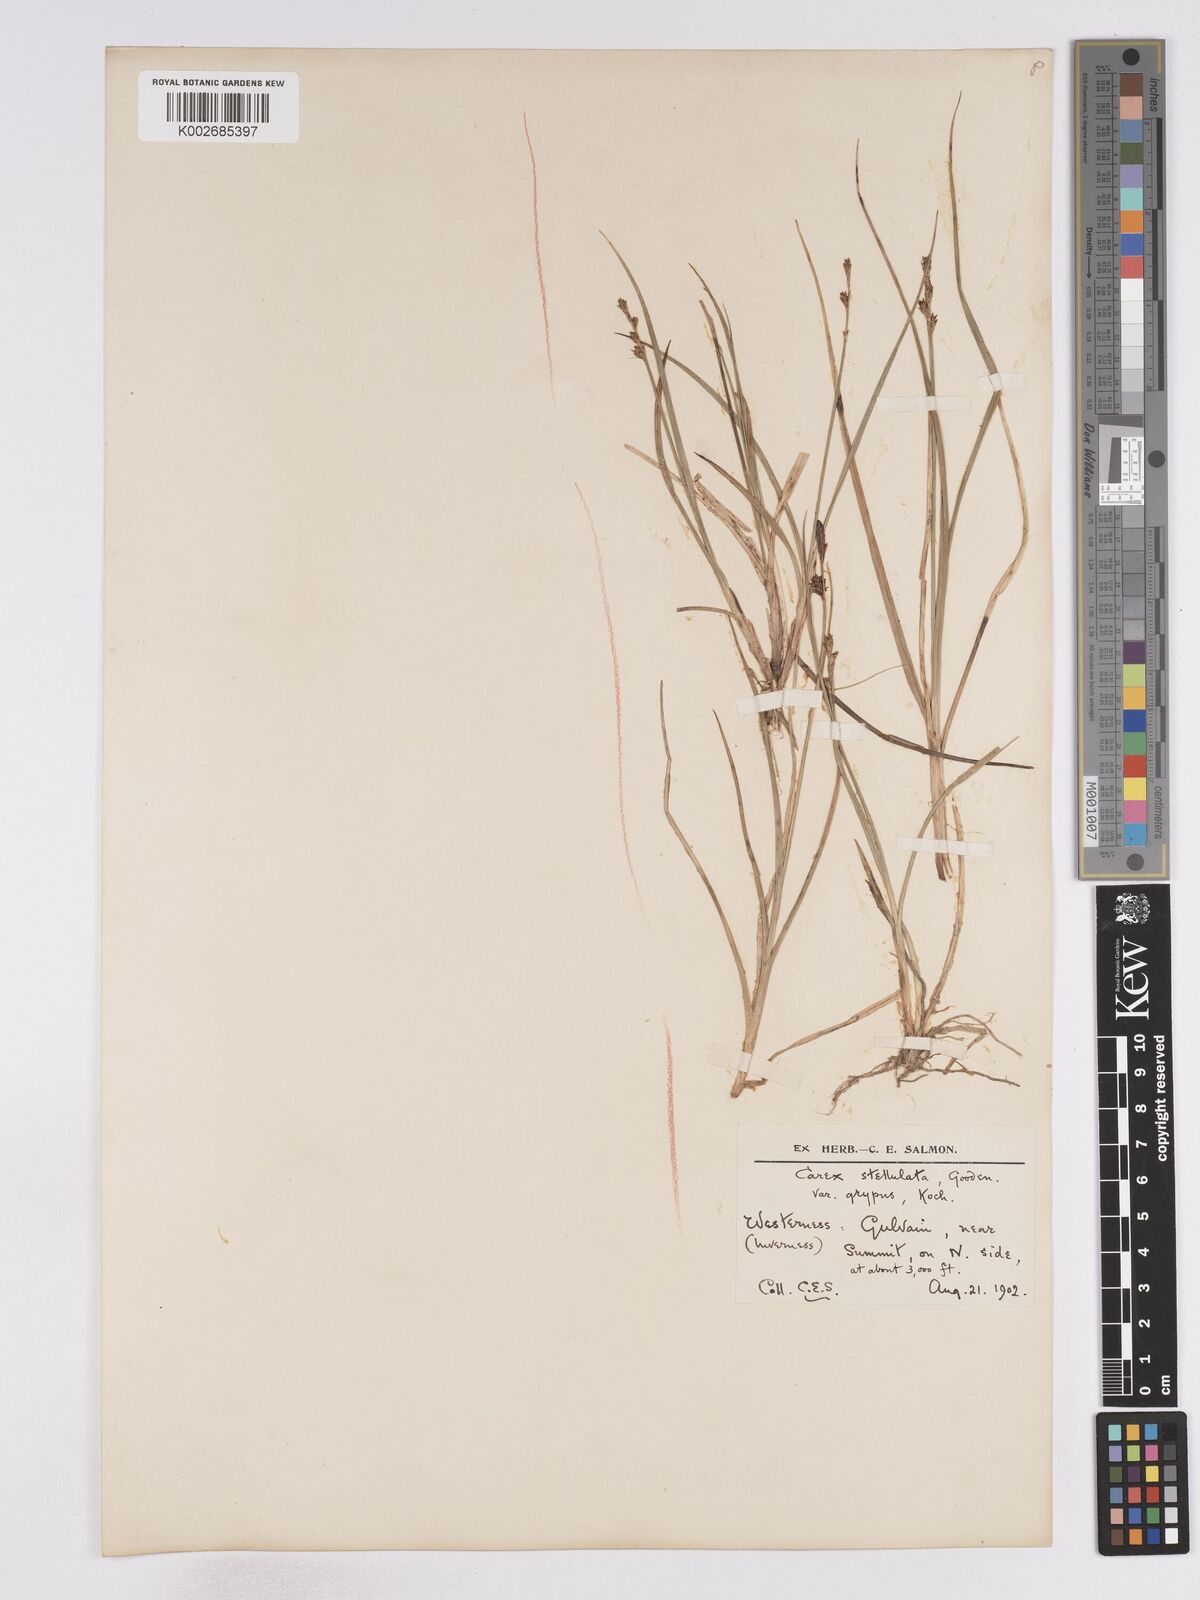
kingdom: Plantae
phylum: Tracheophyta
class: Liliopsida
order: Poales
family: Cyperaceae
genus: Carex
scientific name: Carex echinata
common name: Star sedge
